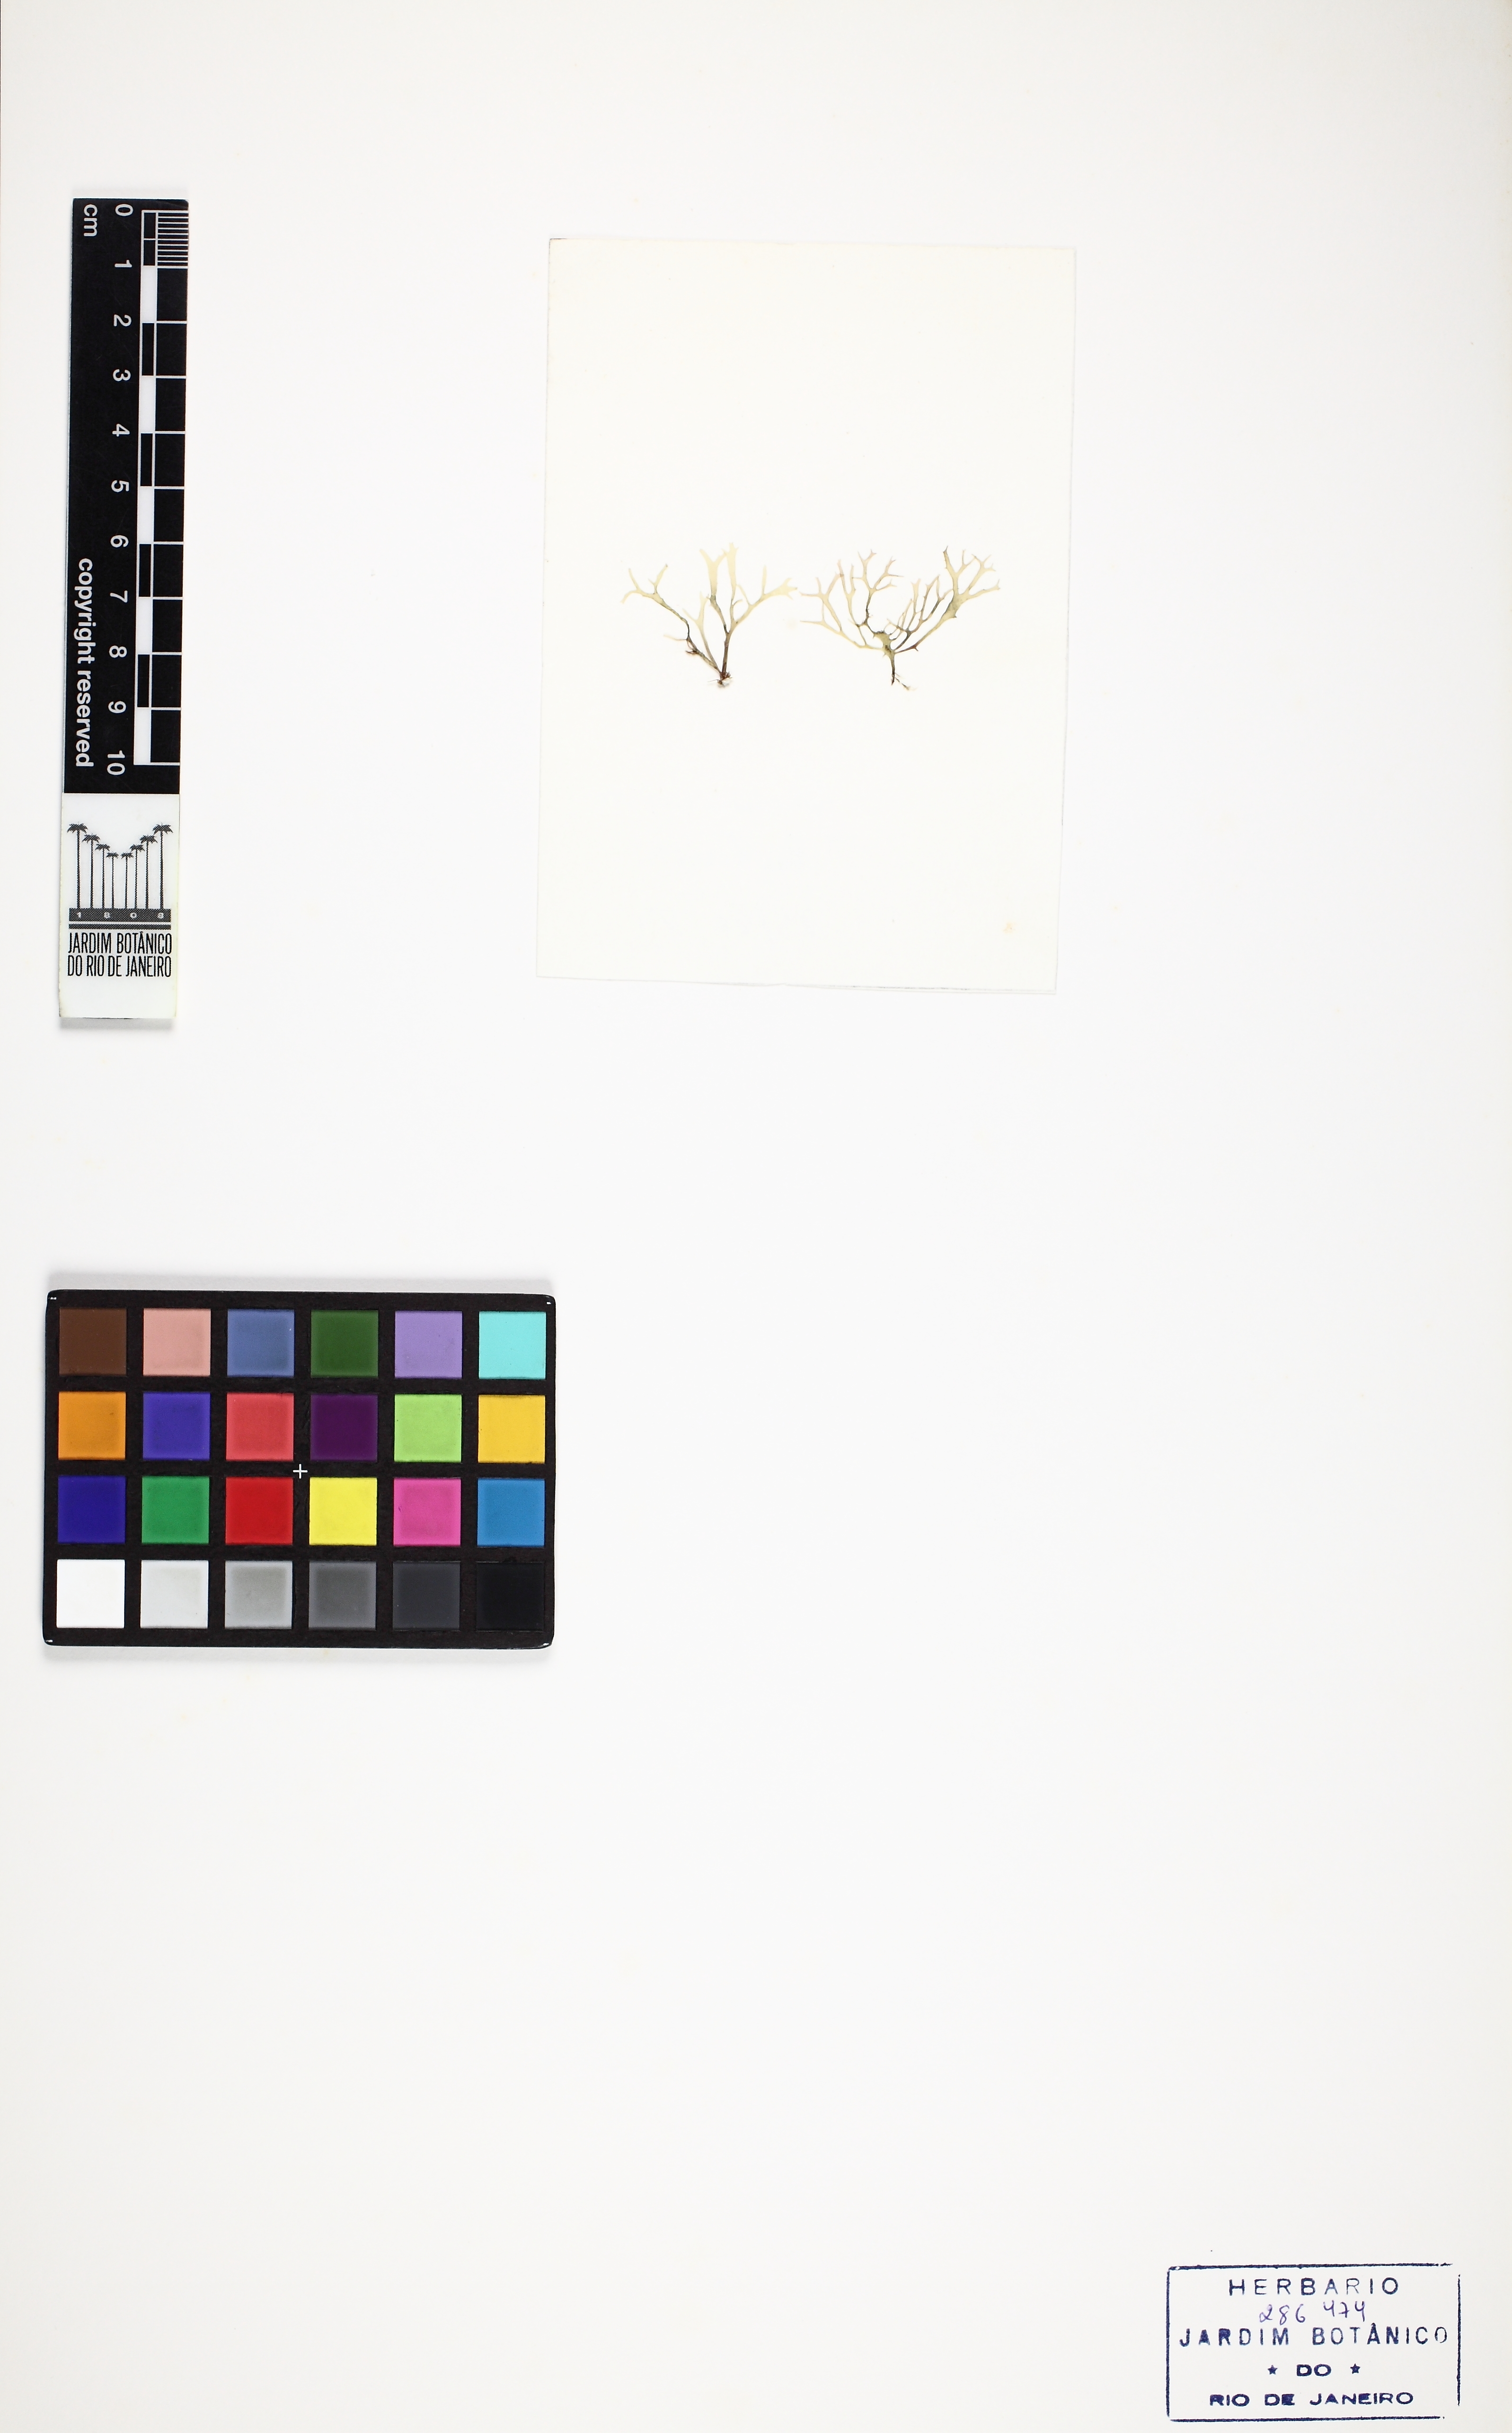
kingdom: Plantae
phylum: Rhodophyta
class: Florideophyceae
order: Gracilariales
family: Gracilariaceae
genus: Gracilaria
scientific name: Gracilaria cervicornis
